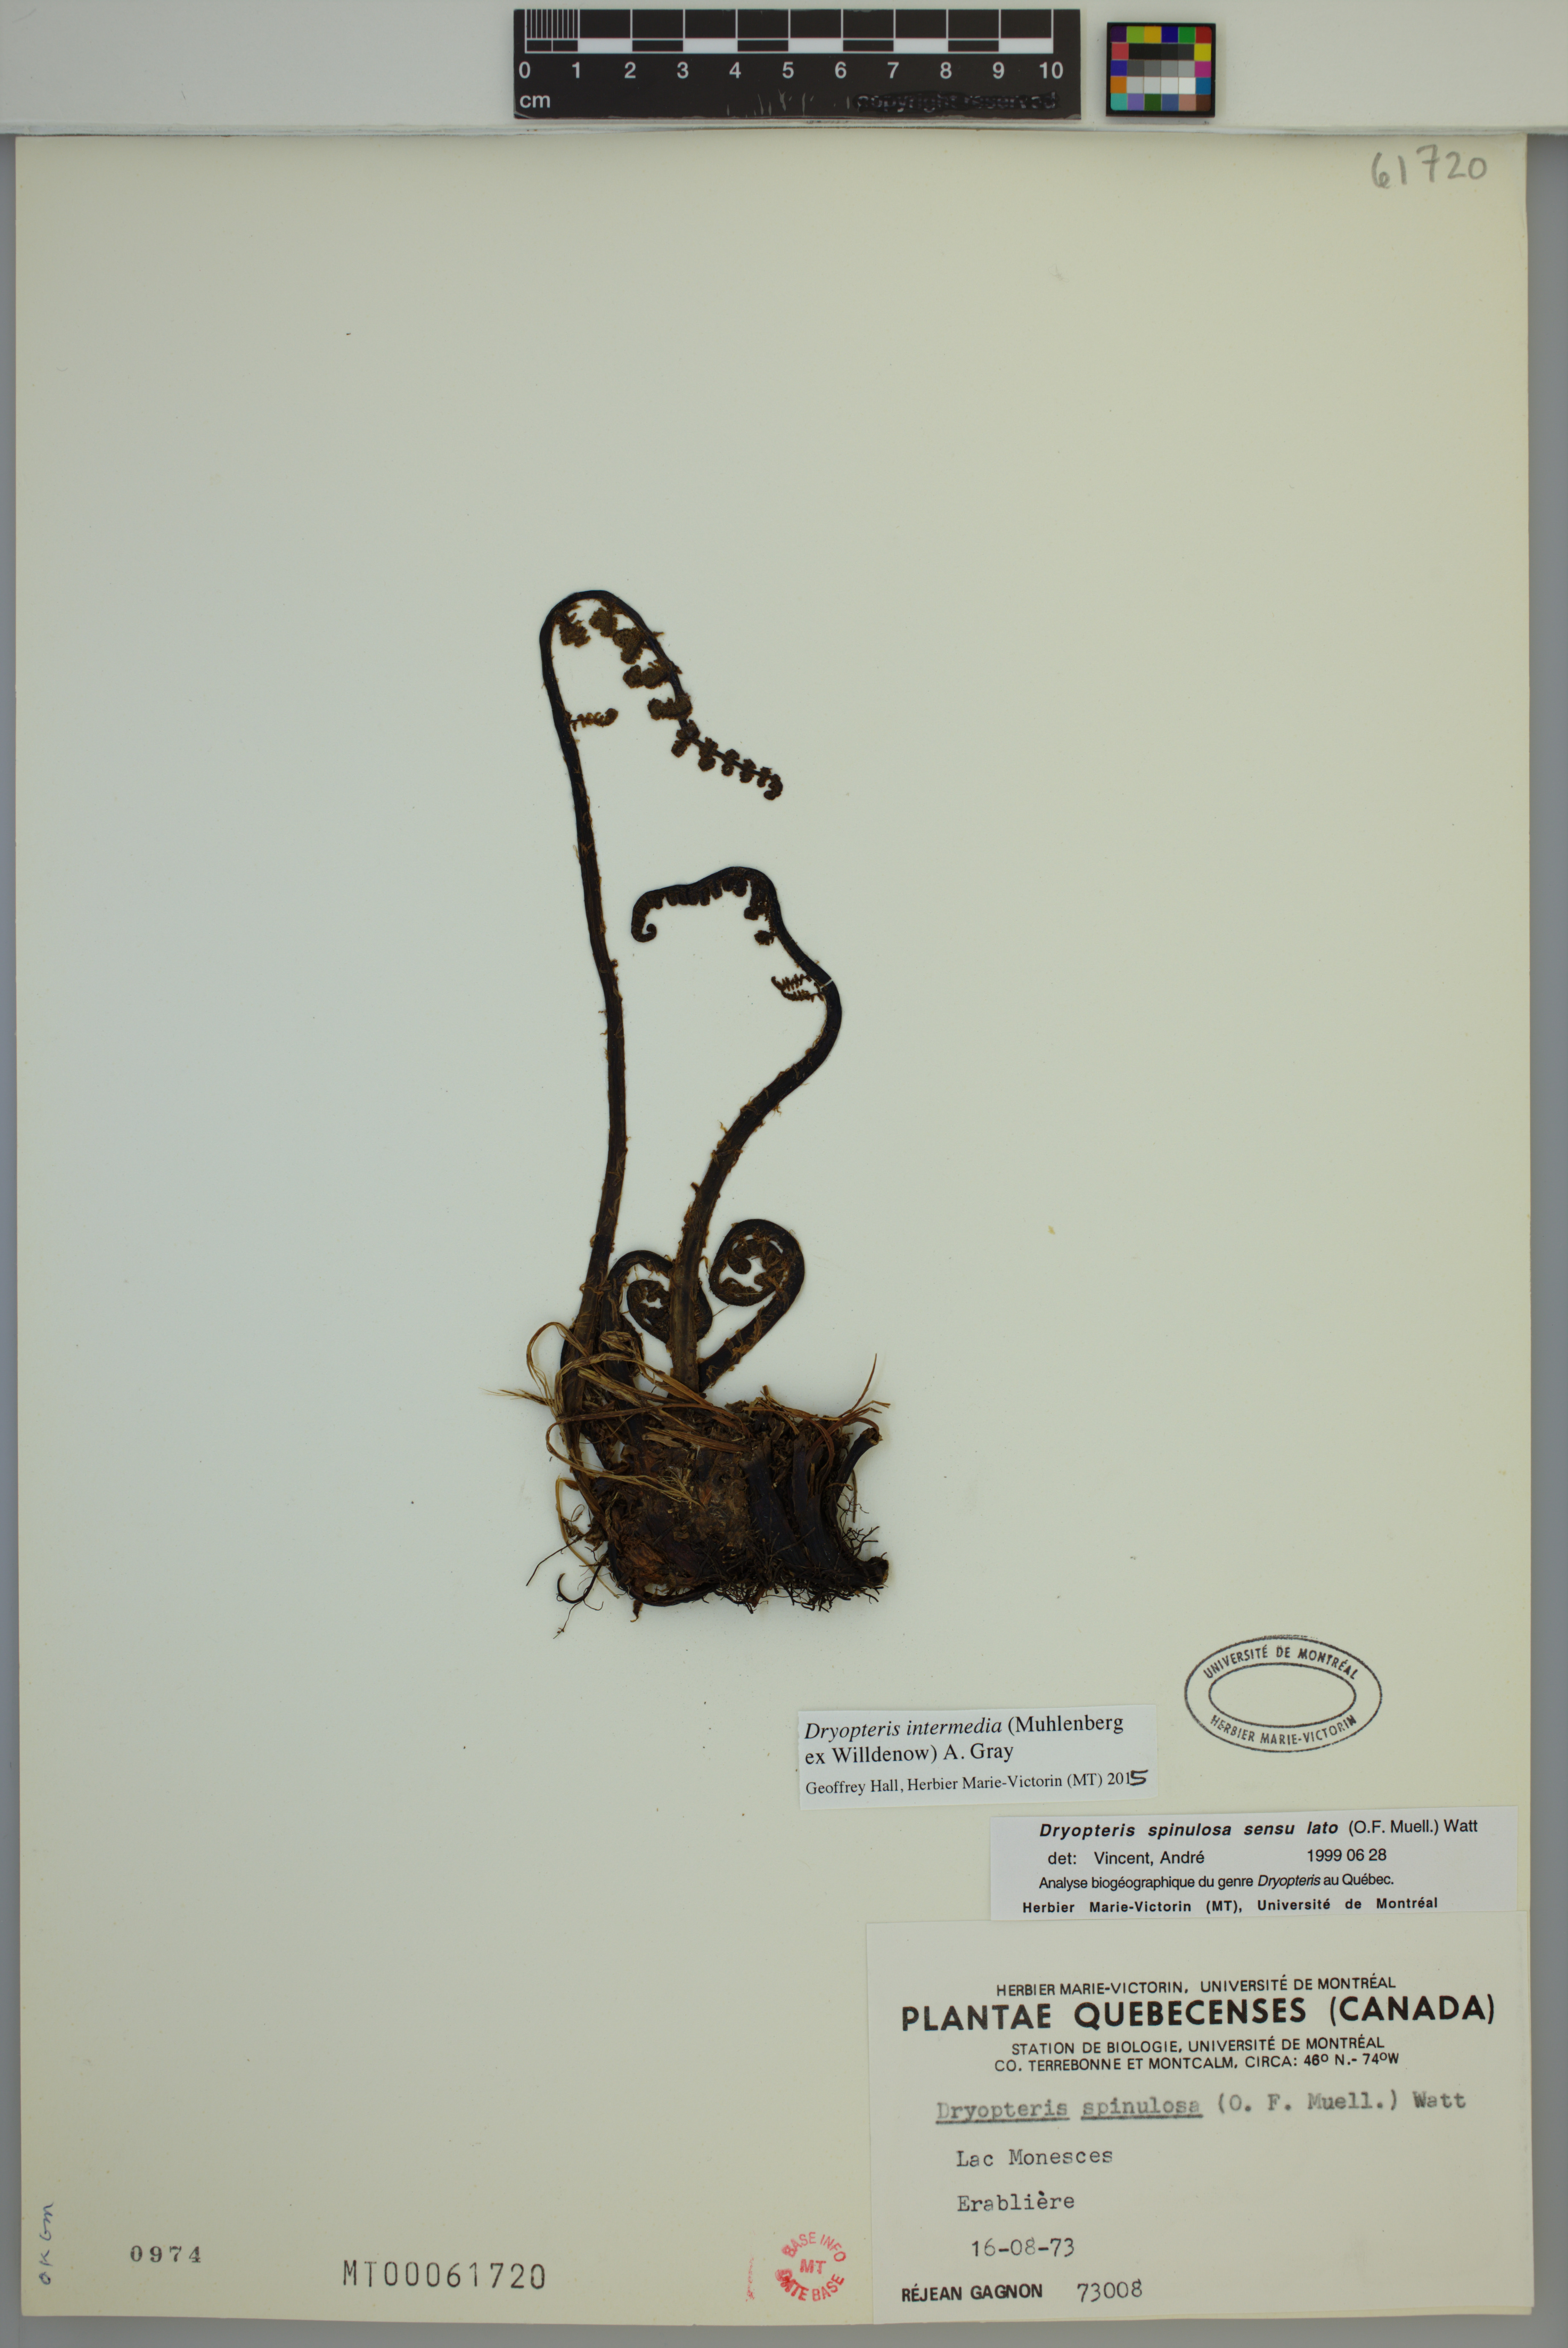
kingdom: Plantae
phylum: Tracheophyta
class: Polypodiopsida
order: Polypodiales
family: Dryopteridaceae
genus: Dryopteris
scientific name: Dryopteris intermedia
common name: Evergreen wood fern
